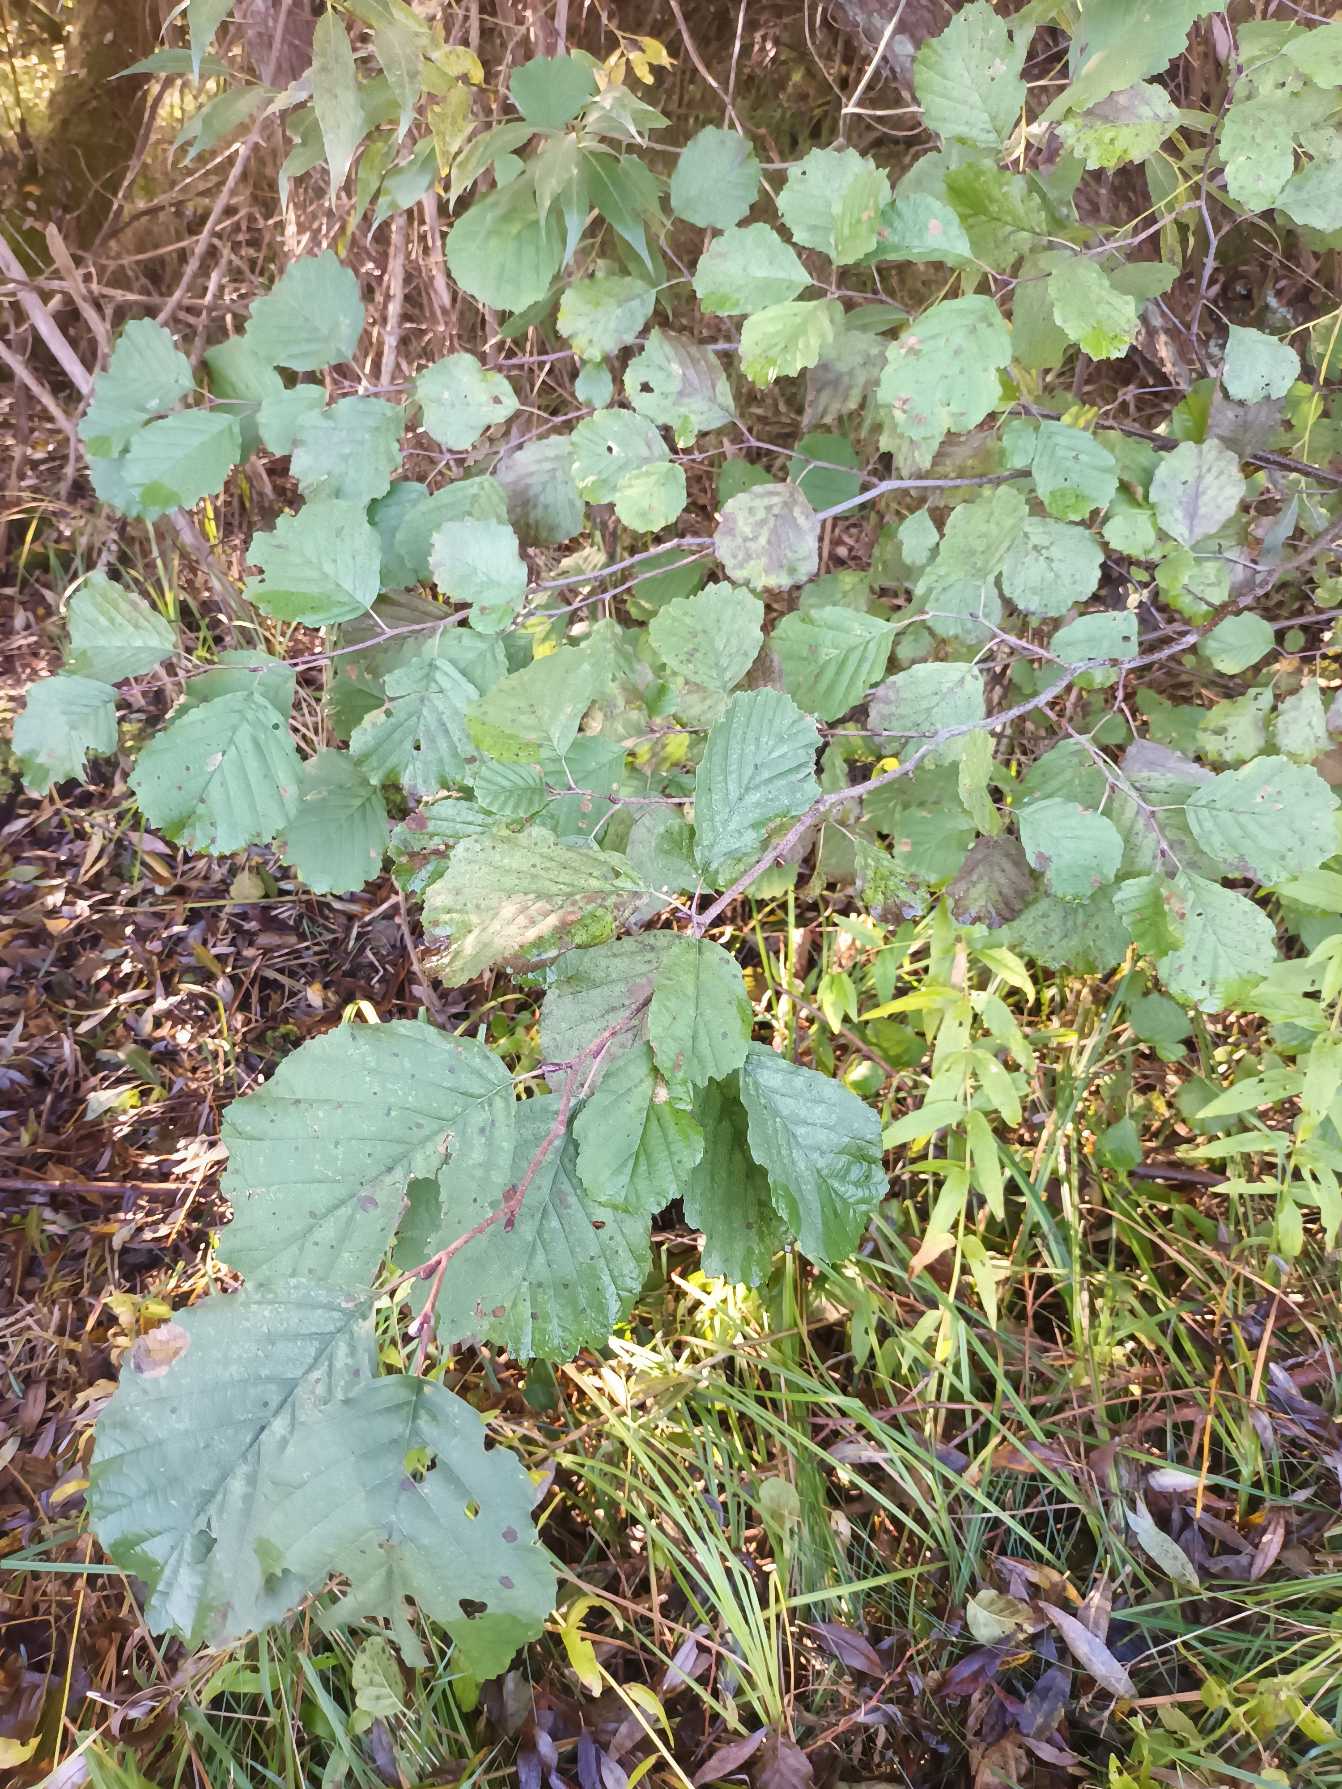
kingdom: Plantae
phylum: Tracheophyta
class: Magnoliopsida
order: Fagales
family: Betulaceae
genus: Alnus
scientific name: Alnus glutinosa
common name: Rød-el
